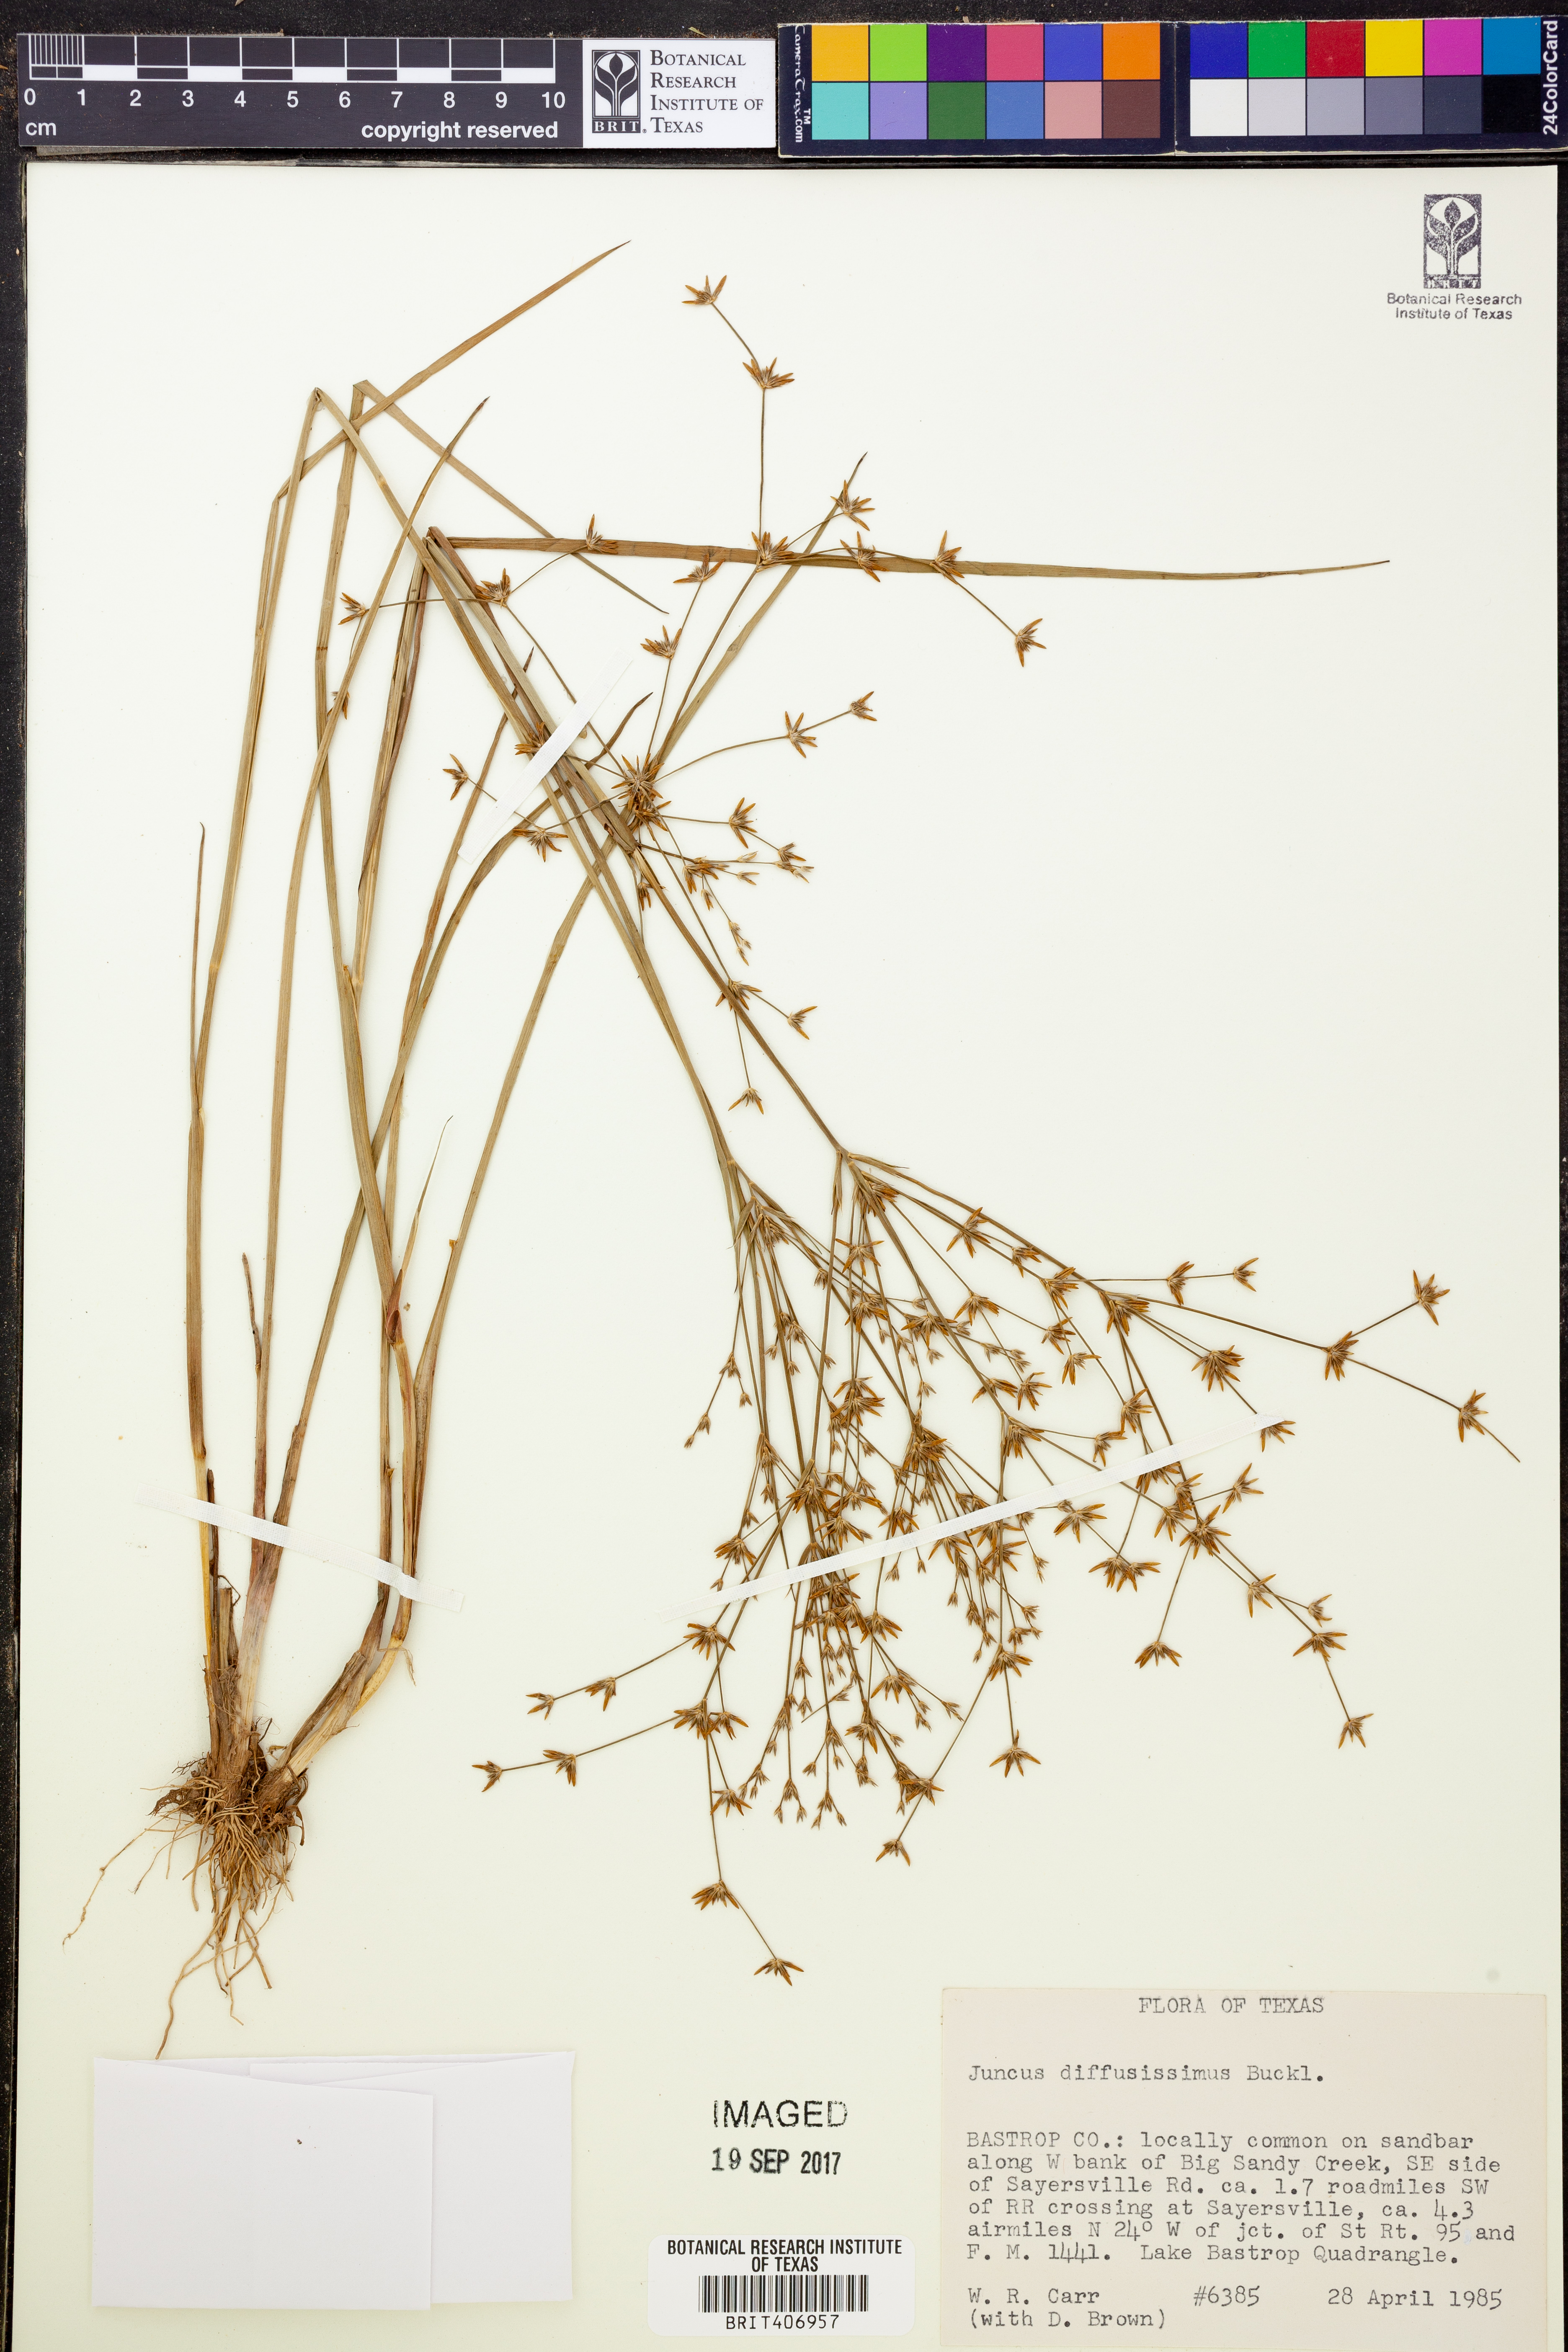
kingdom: Plantae
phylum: Tracheophyta
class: Liliopsida
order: Poales
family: Juncaceae
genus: Juncus
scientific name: Juncus diffusissimus
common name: Slimpod rush
